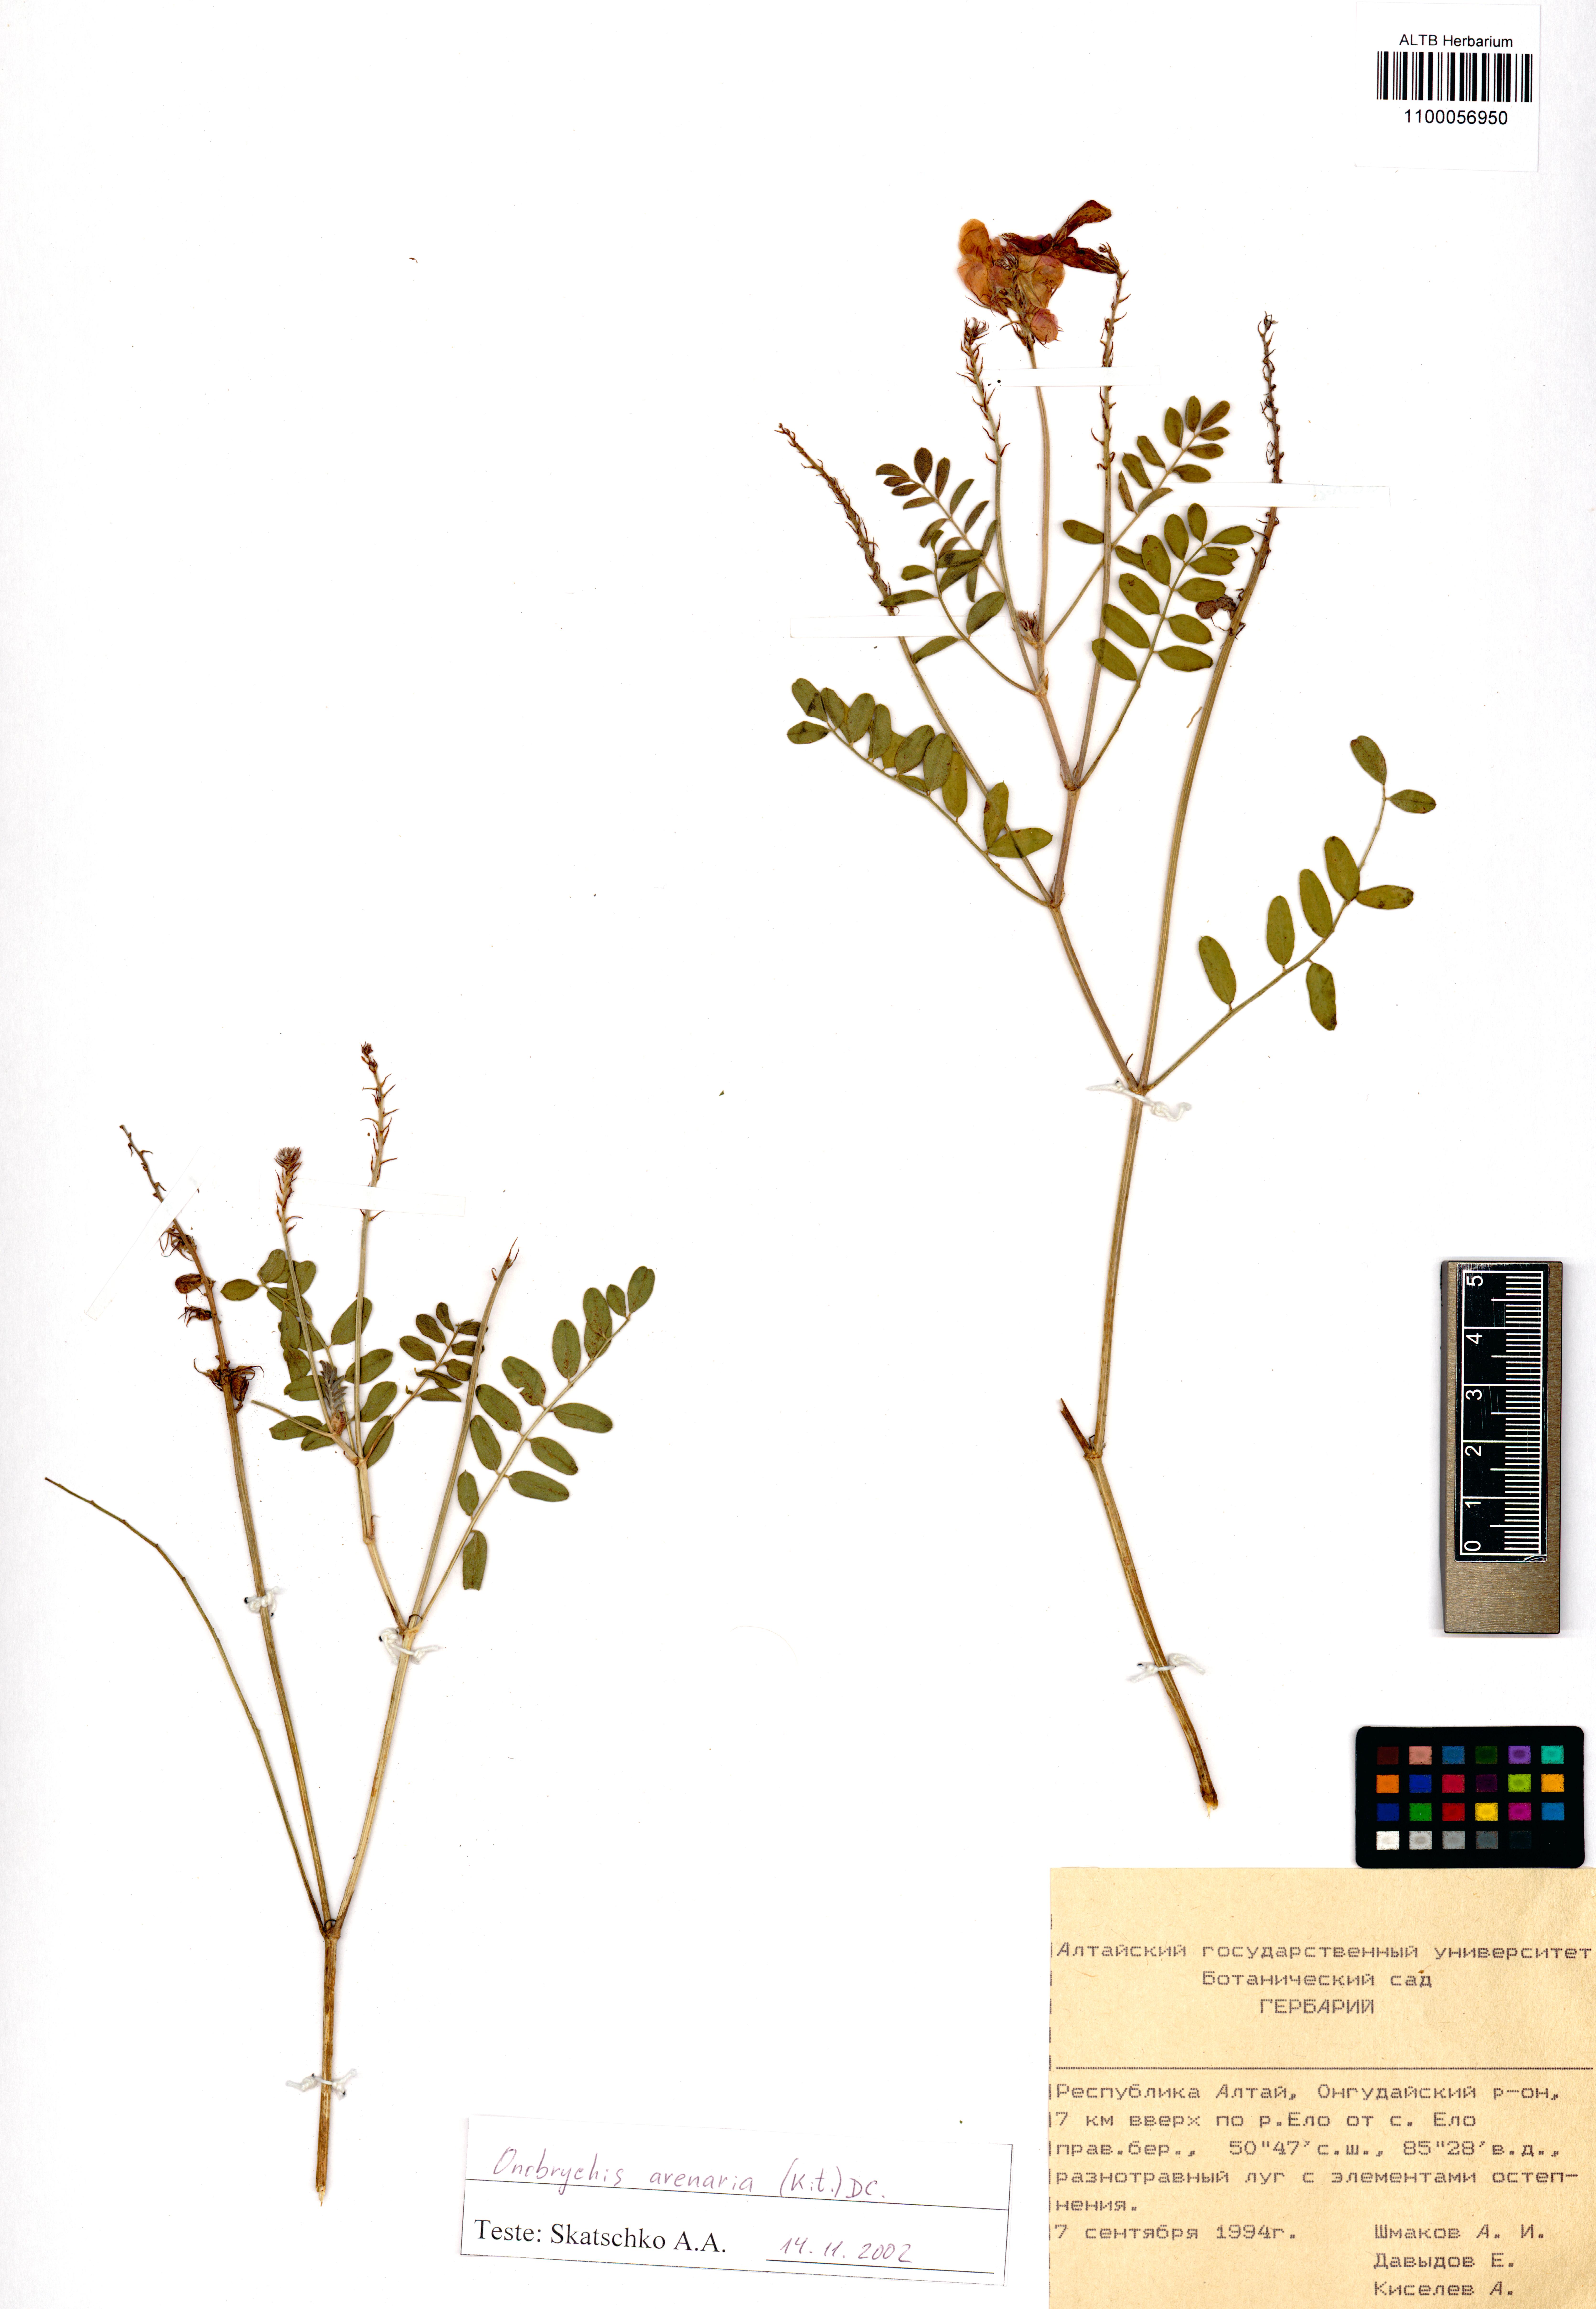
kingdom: Plantae
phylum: Tracheophyta
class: Magnoliopsida
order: Fabales
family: Fabaceae
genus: Onobrychis
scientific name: Onobrychis arenaria
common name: Sand esparcet
